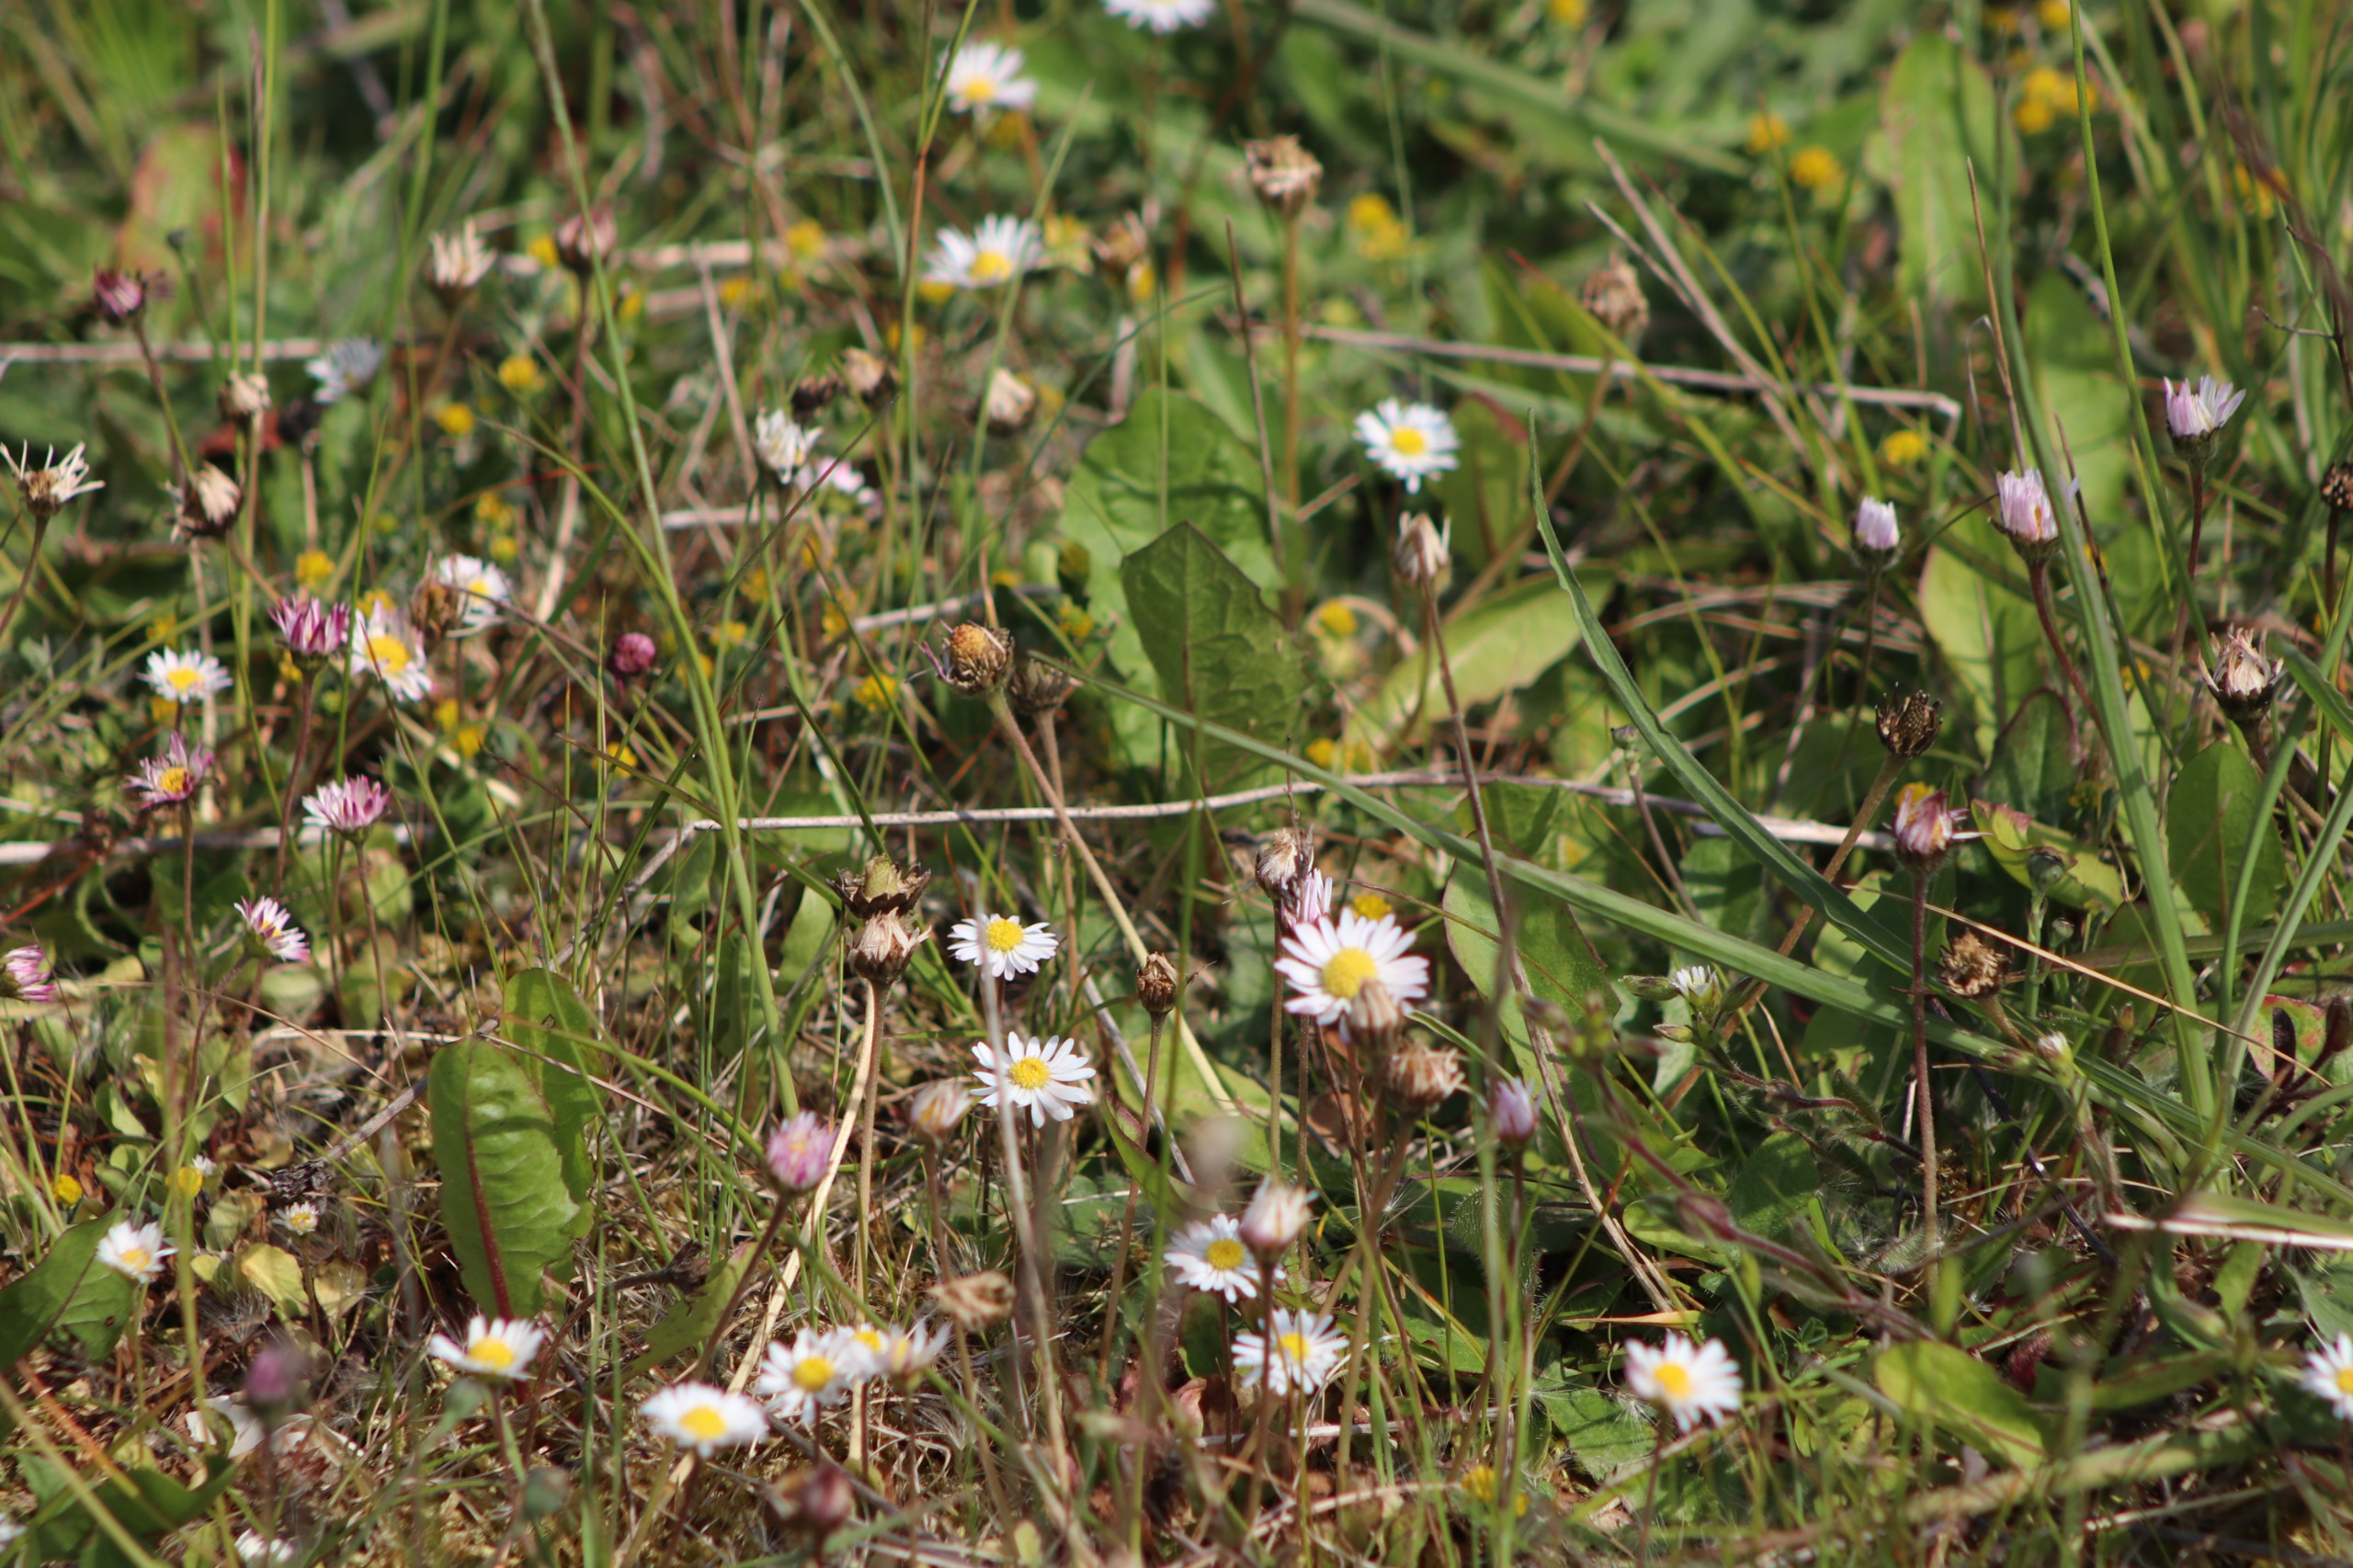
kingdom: Plantae
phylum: Tracheophyta
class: Magnoliopsida
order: Asterales
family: Asteraceae
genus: Bellis
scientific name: Bellis perennis
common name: Tusindfryd
